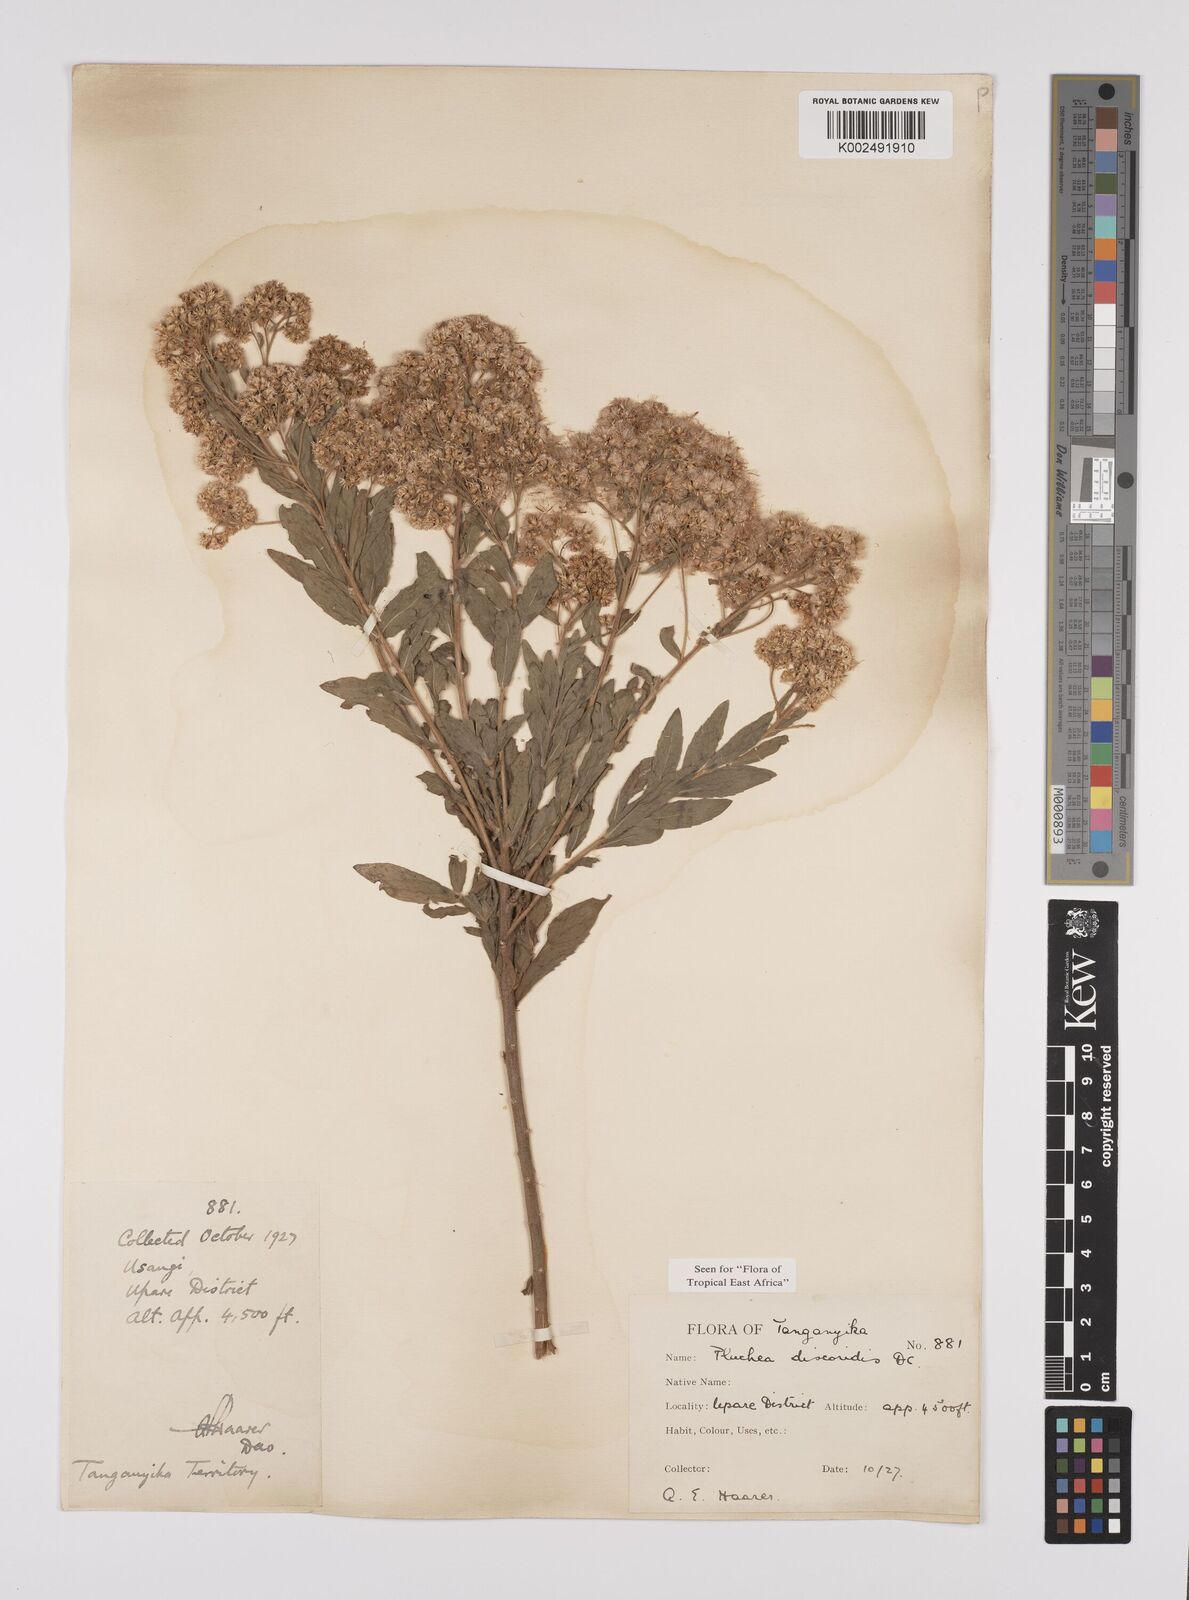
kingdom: Plantae
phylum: Tracheophyta
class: Magnoliopsida
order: Asterales
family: Asteraceae
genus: Pluchea
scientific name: Pluchea dioscoridis
